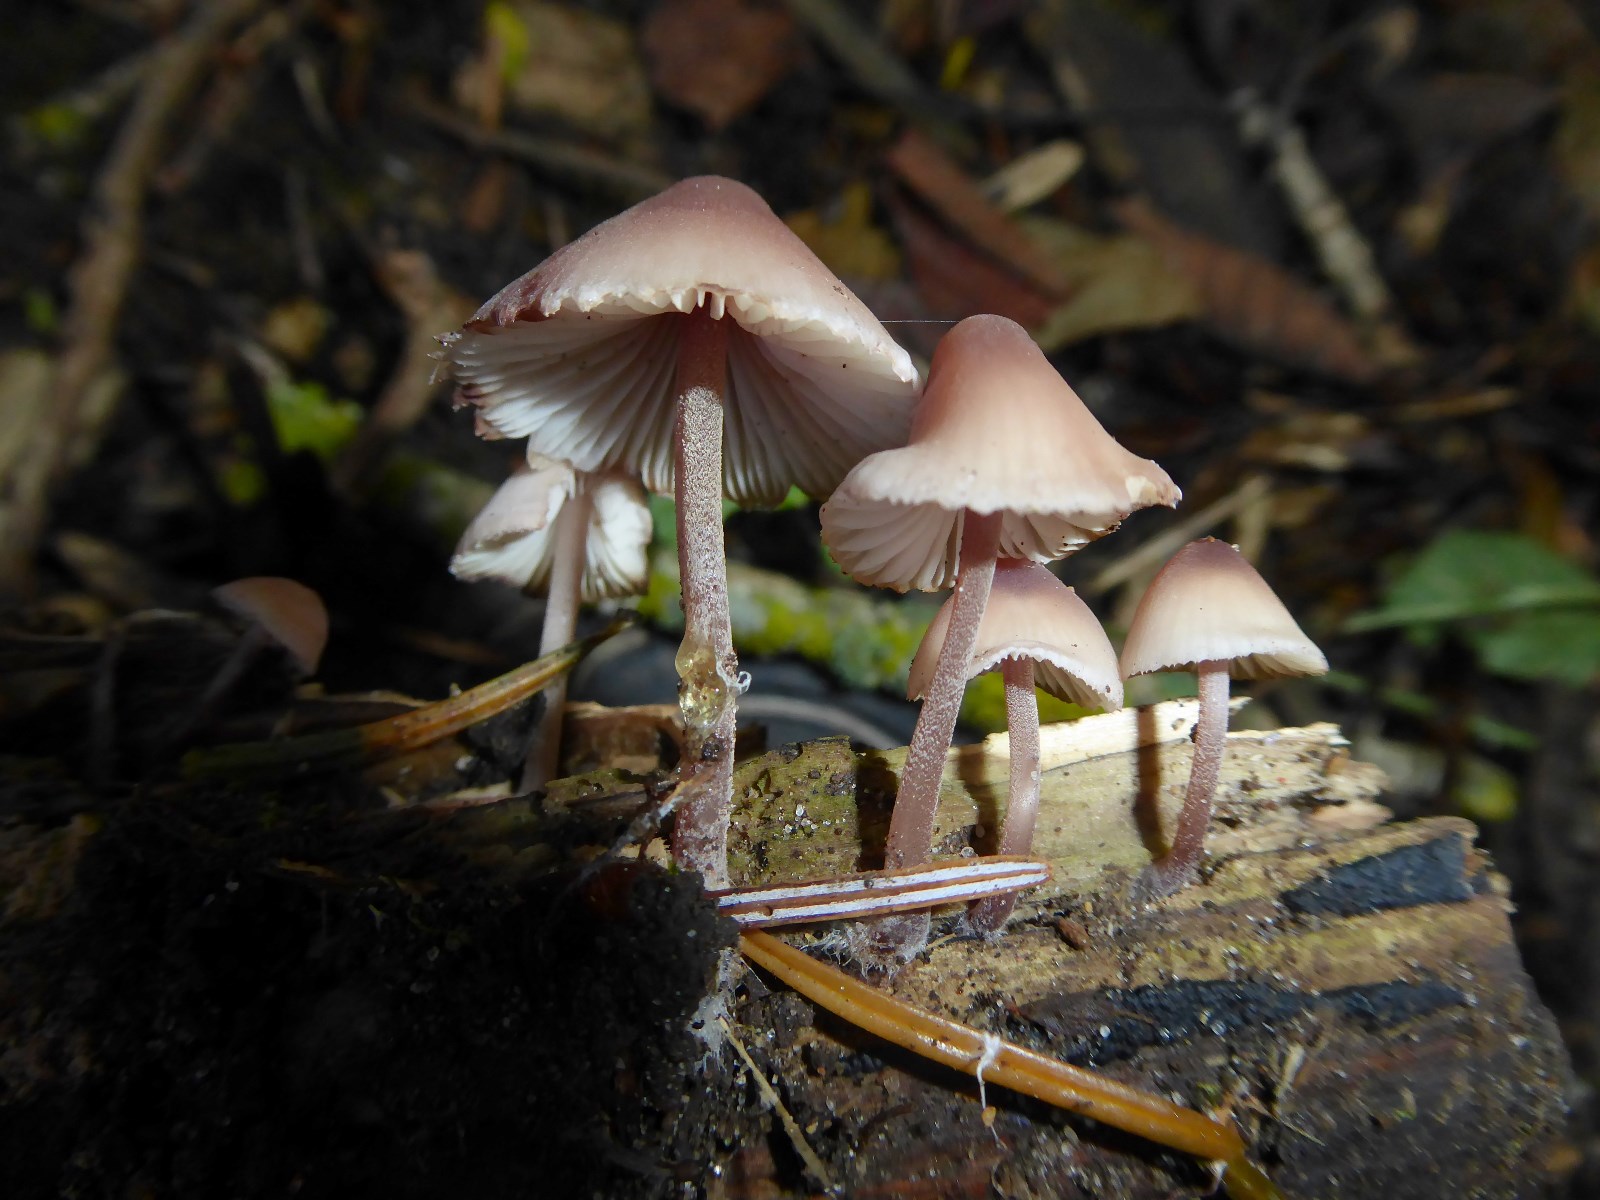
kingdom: Fungi
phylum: Basidiomycota
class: Agaricomycetes
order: Agaricales
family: Mycenaceae
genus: Mycena
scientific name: Mycena haematopus
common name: blødende huesvamp
